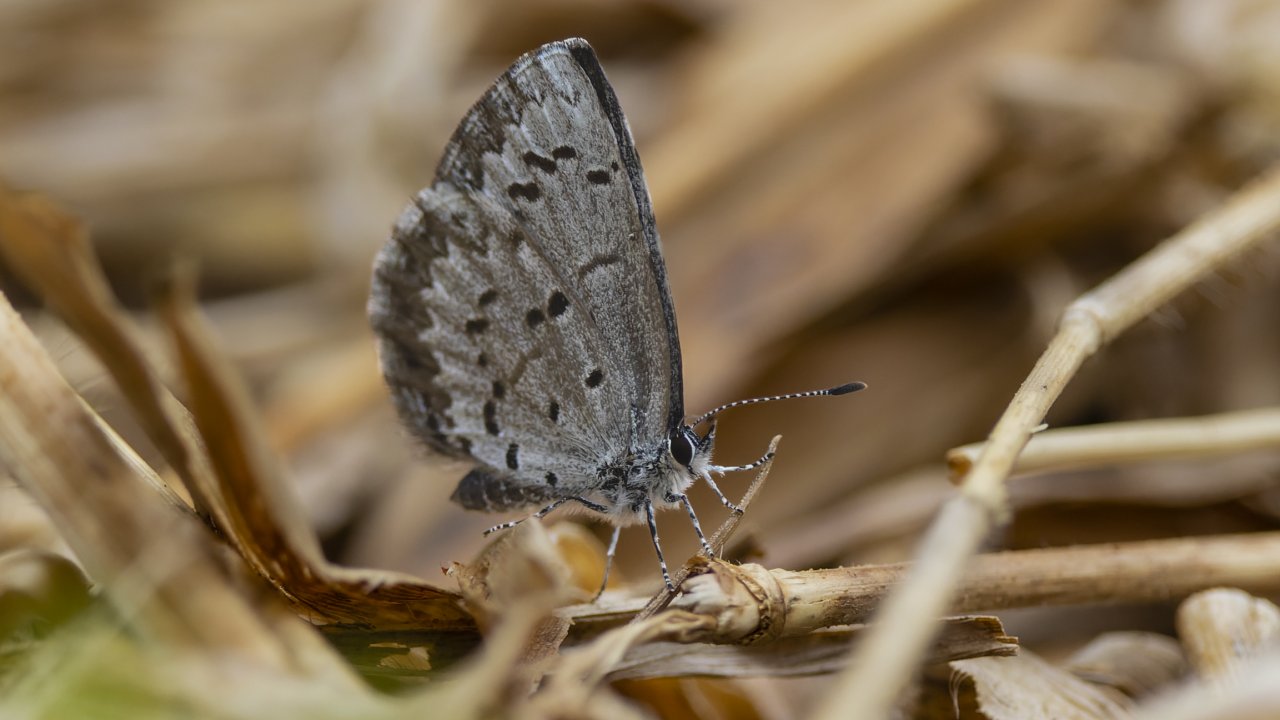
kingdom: Animalia
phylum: Arthropoda
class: Insecta
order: Lepidoptera
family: Lycaenidae
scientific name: Lycaenidae
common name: Blues
